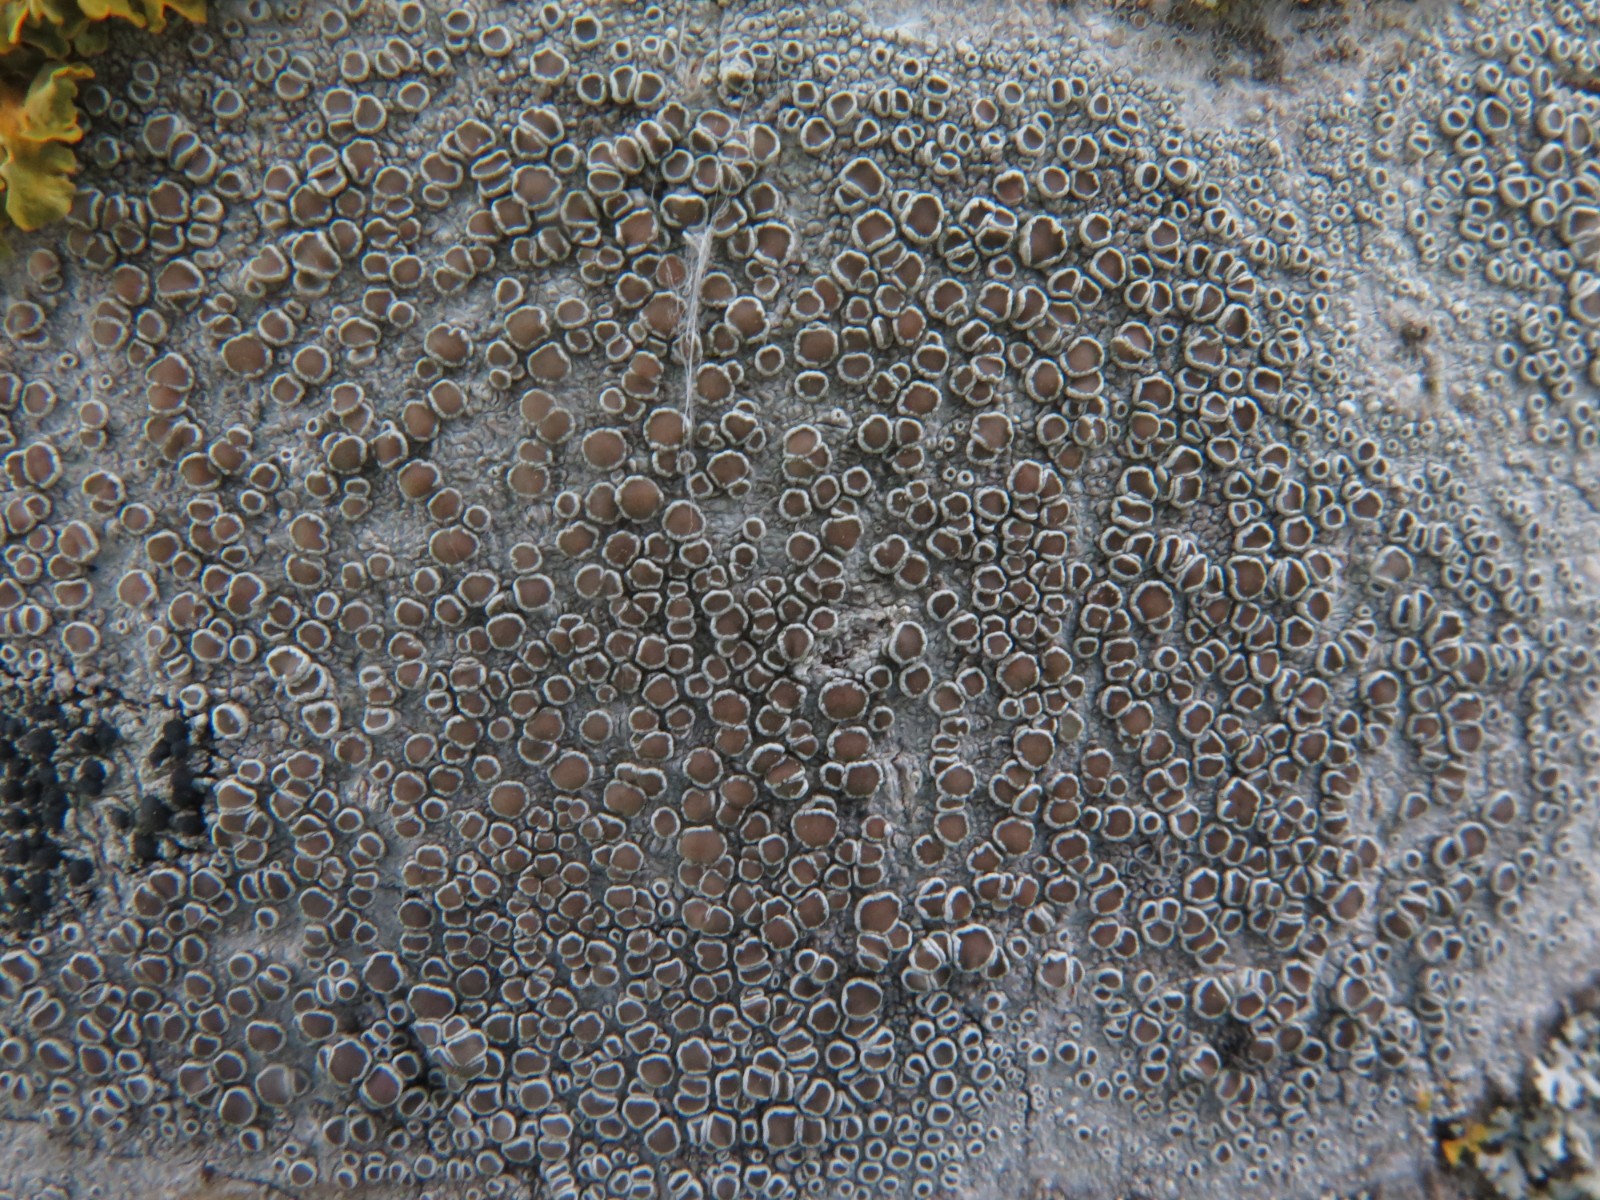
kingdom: Fungi
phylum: Ascomycota
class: Lecanoromycetes
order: Lecanorales
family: Lecanoraceae
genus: Lecanora
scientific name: Lecanora chlarotera
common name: brun kantskivelav
